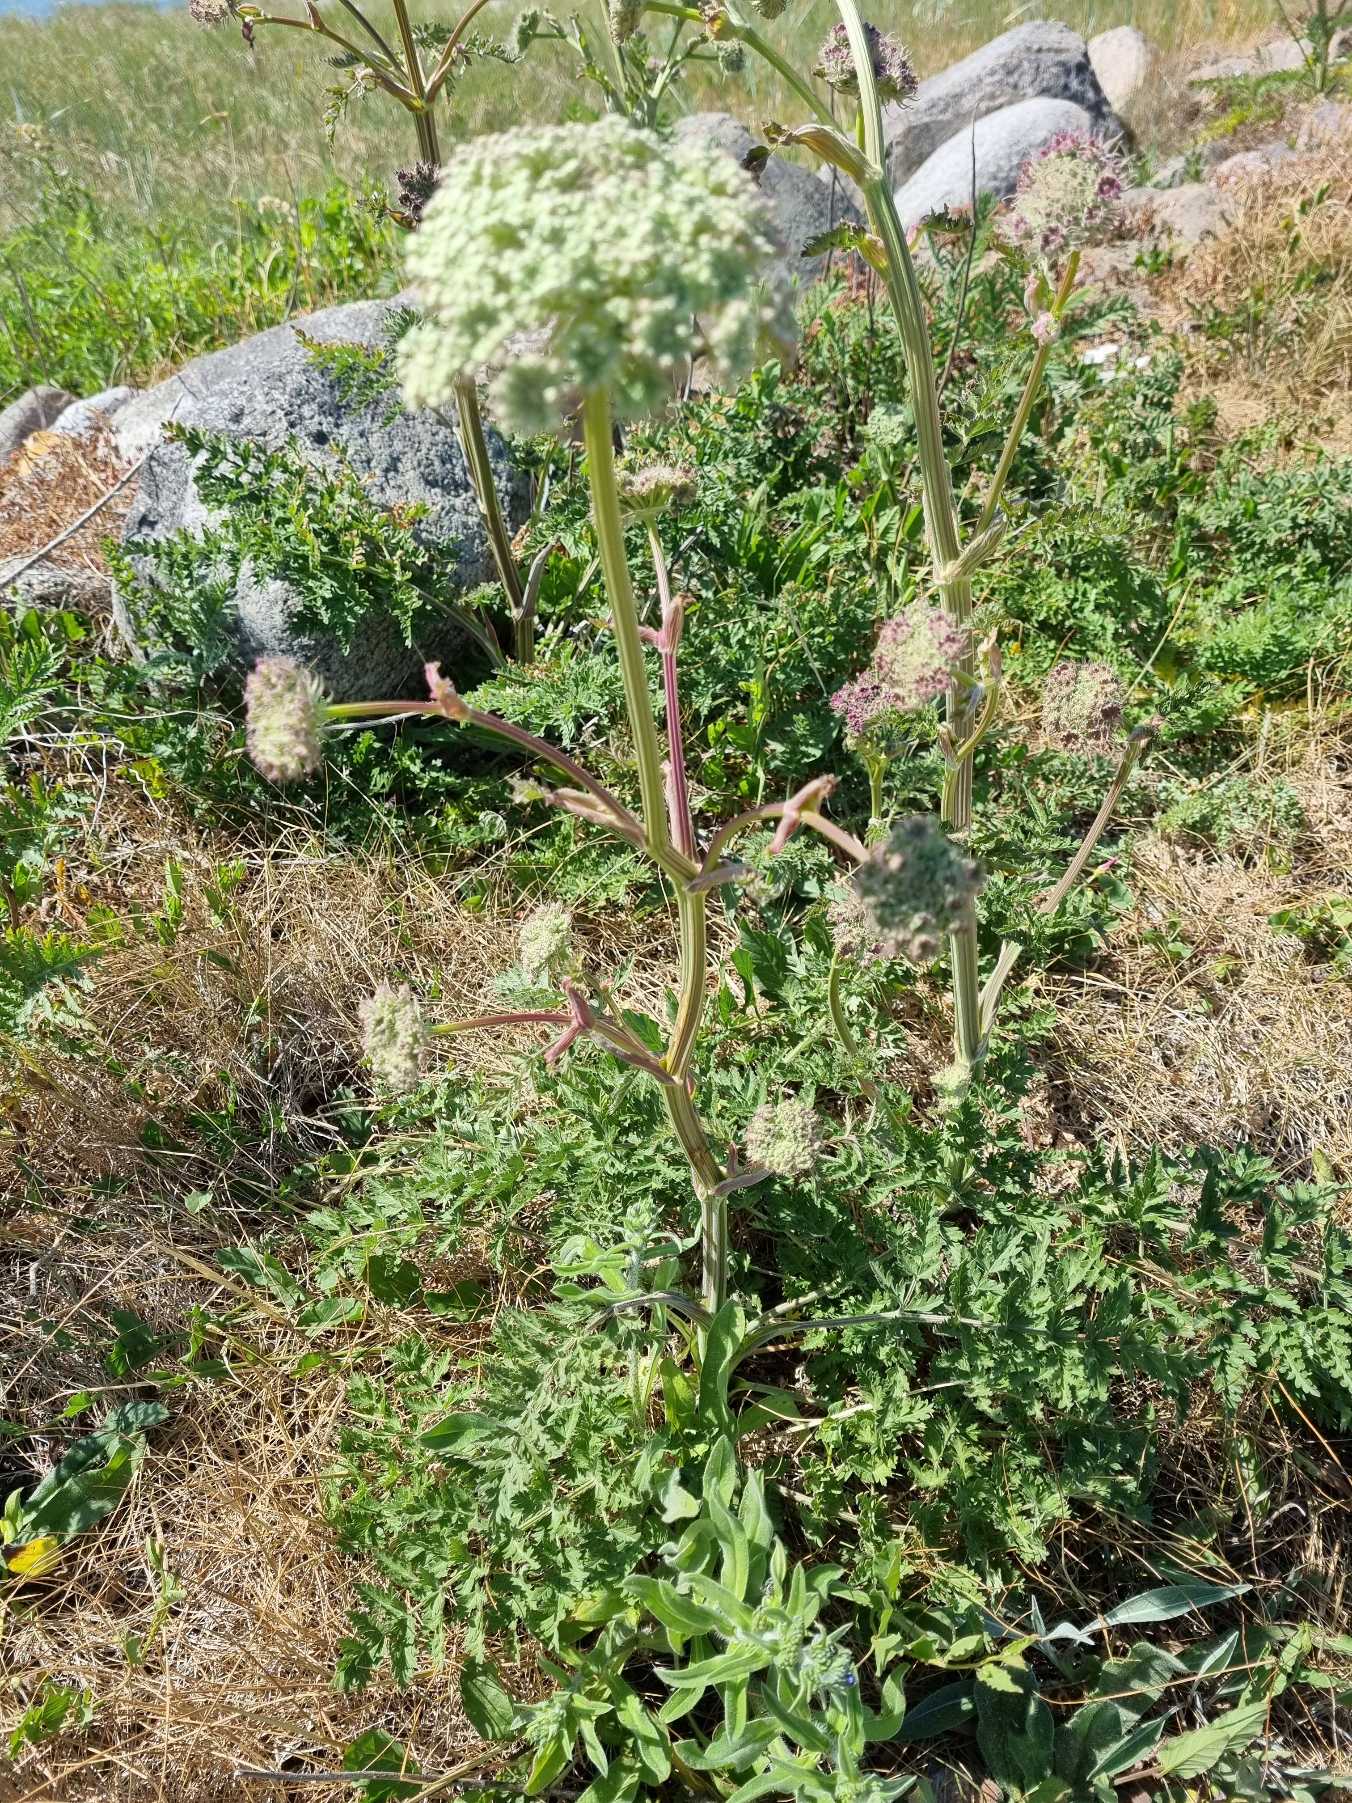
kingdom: Plantae
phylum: Tracheophyta
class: Magnoliopsida
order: Apiales
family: Apiaceae
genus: Seseli
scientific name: Seseli libanotis
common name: Hjorterod
